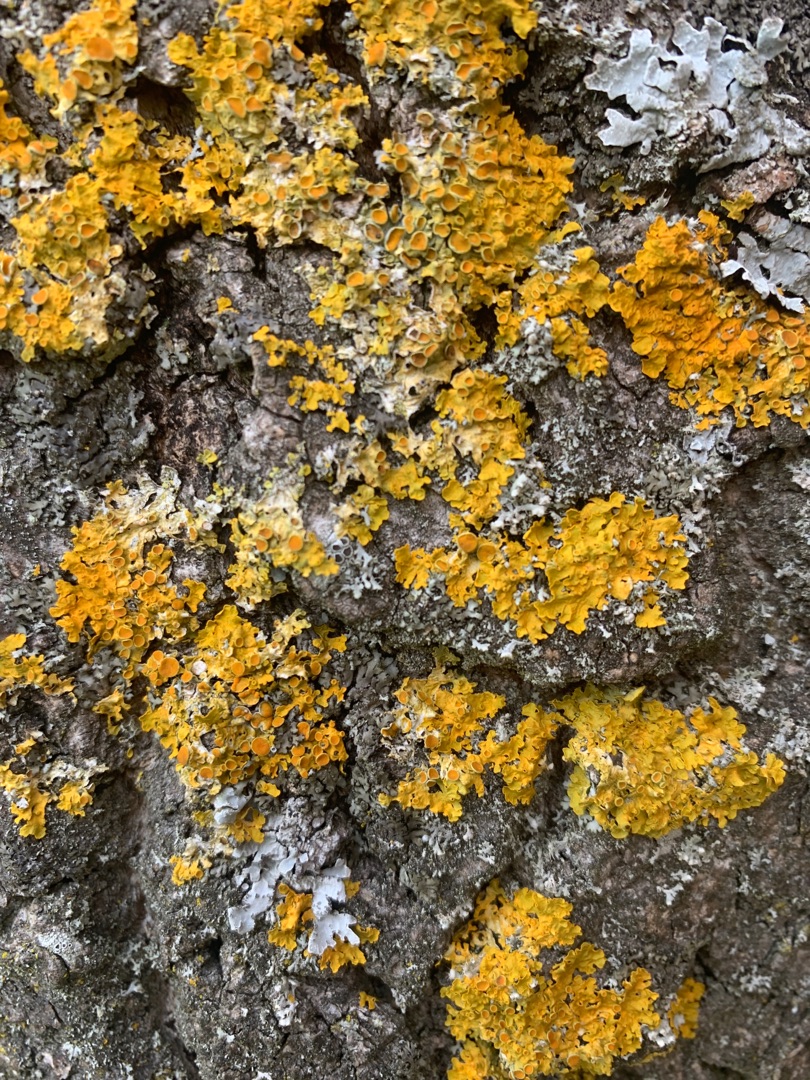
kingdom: Fungi
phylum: Ascomycota
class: Lecanoromycetes
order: Teloschistales
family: Teloschistaceae
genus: Xanthoria
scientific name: Xanthoria parietina
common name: Almindelig væggelav
